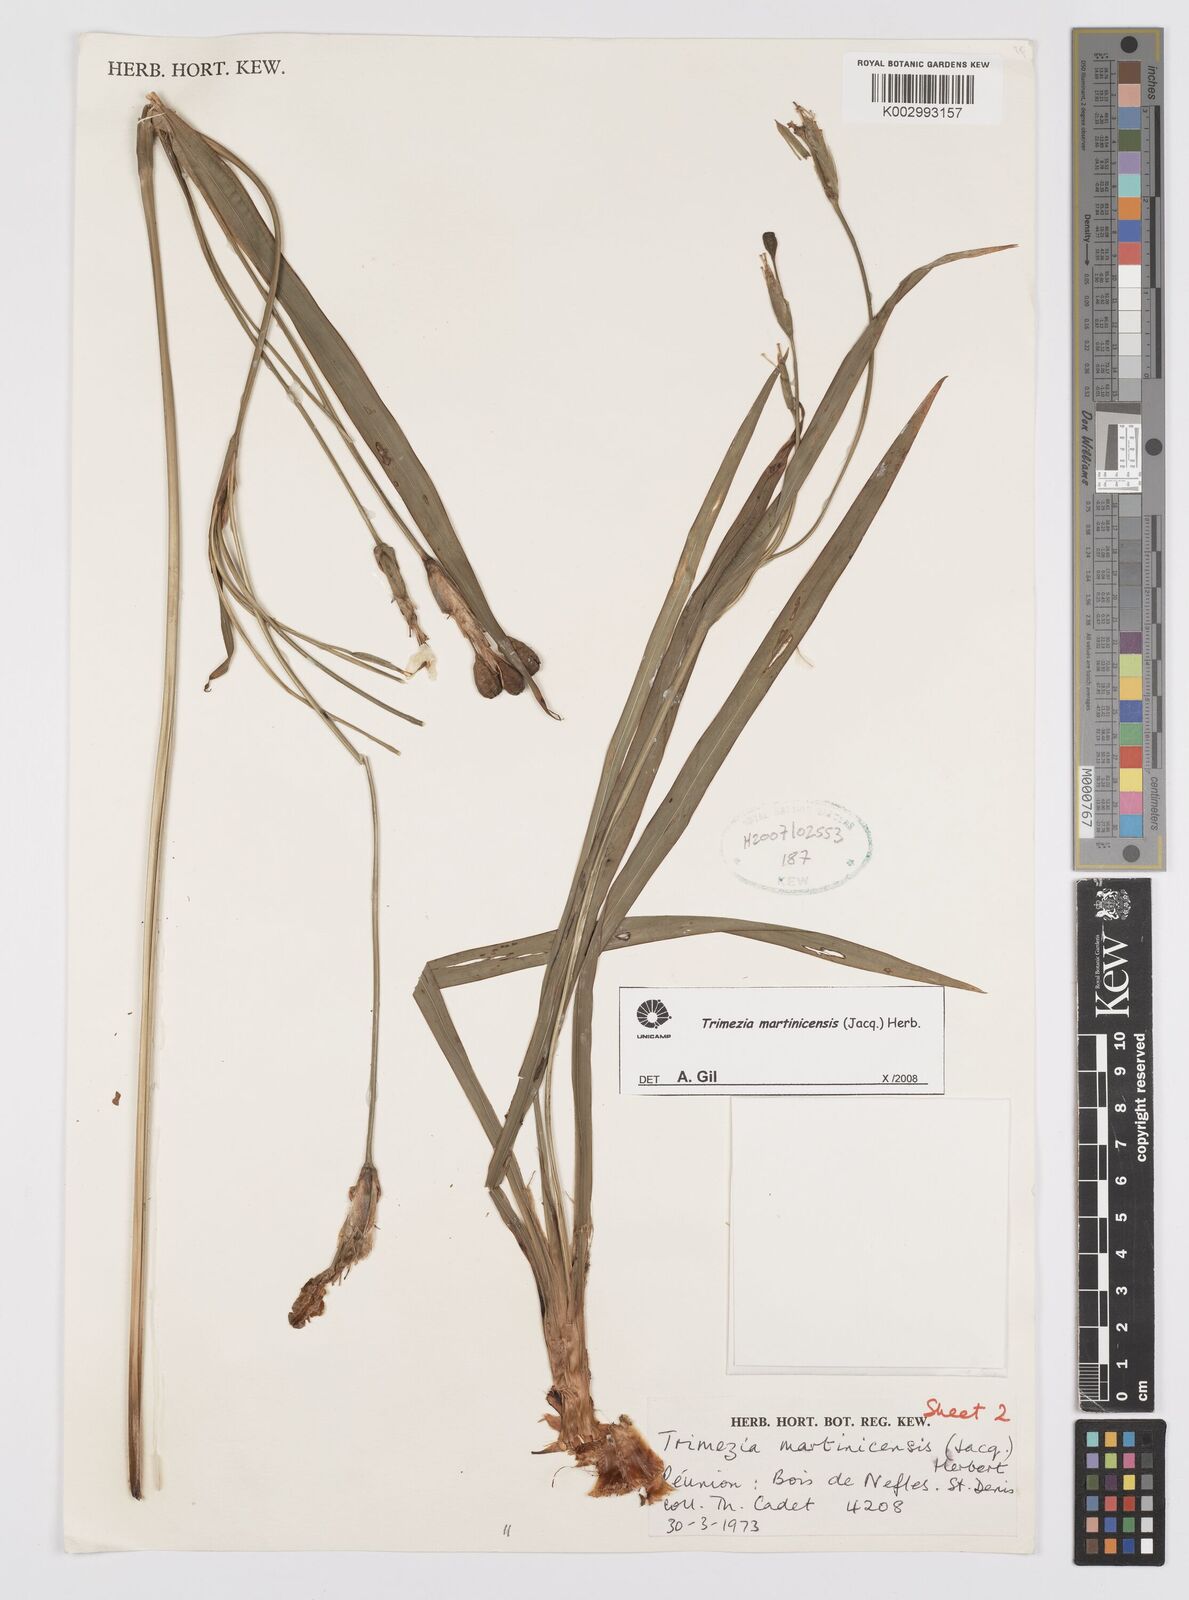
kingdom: Plantae
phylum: Tracheophyta
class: Liliopsida
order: Asparagales
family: Iridaceae
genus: Trimezia
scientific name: Trimezia martinicensis
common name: Martinique trimezia
